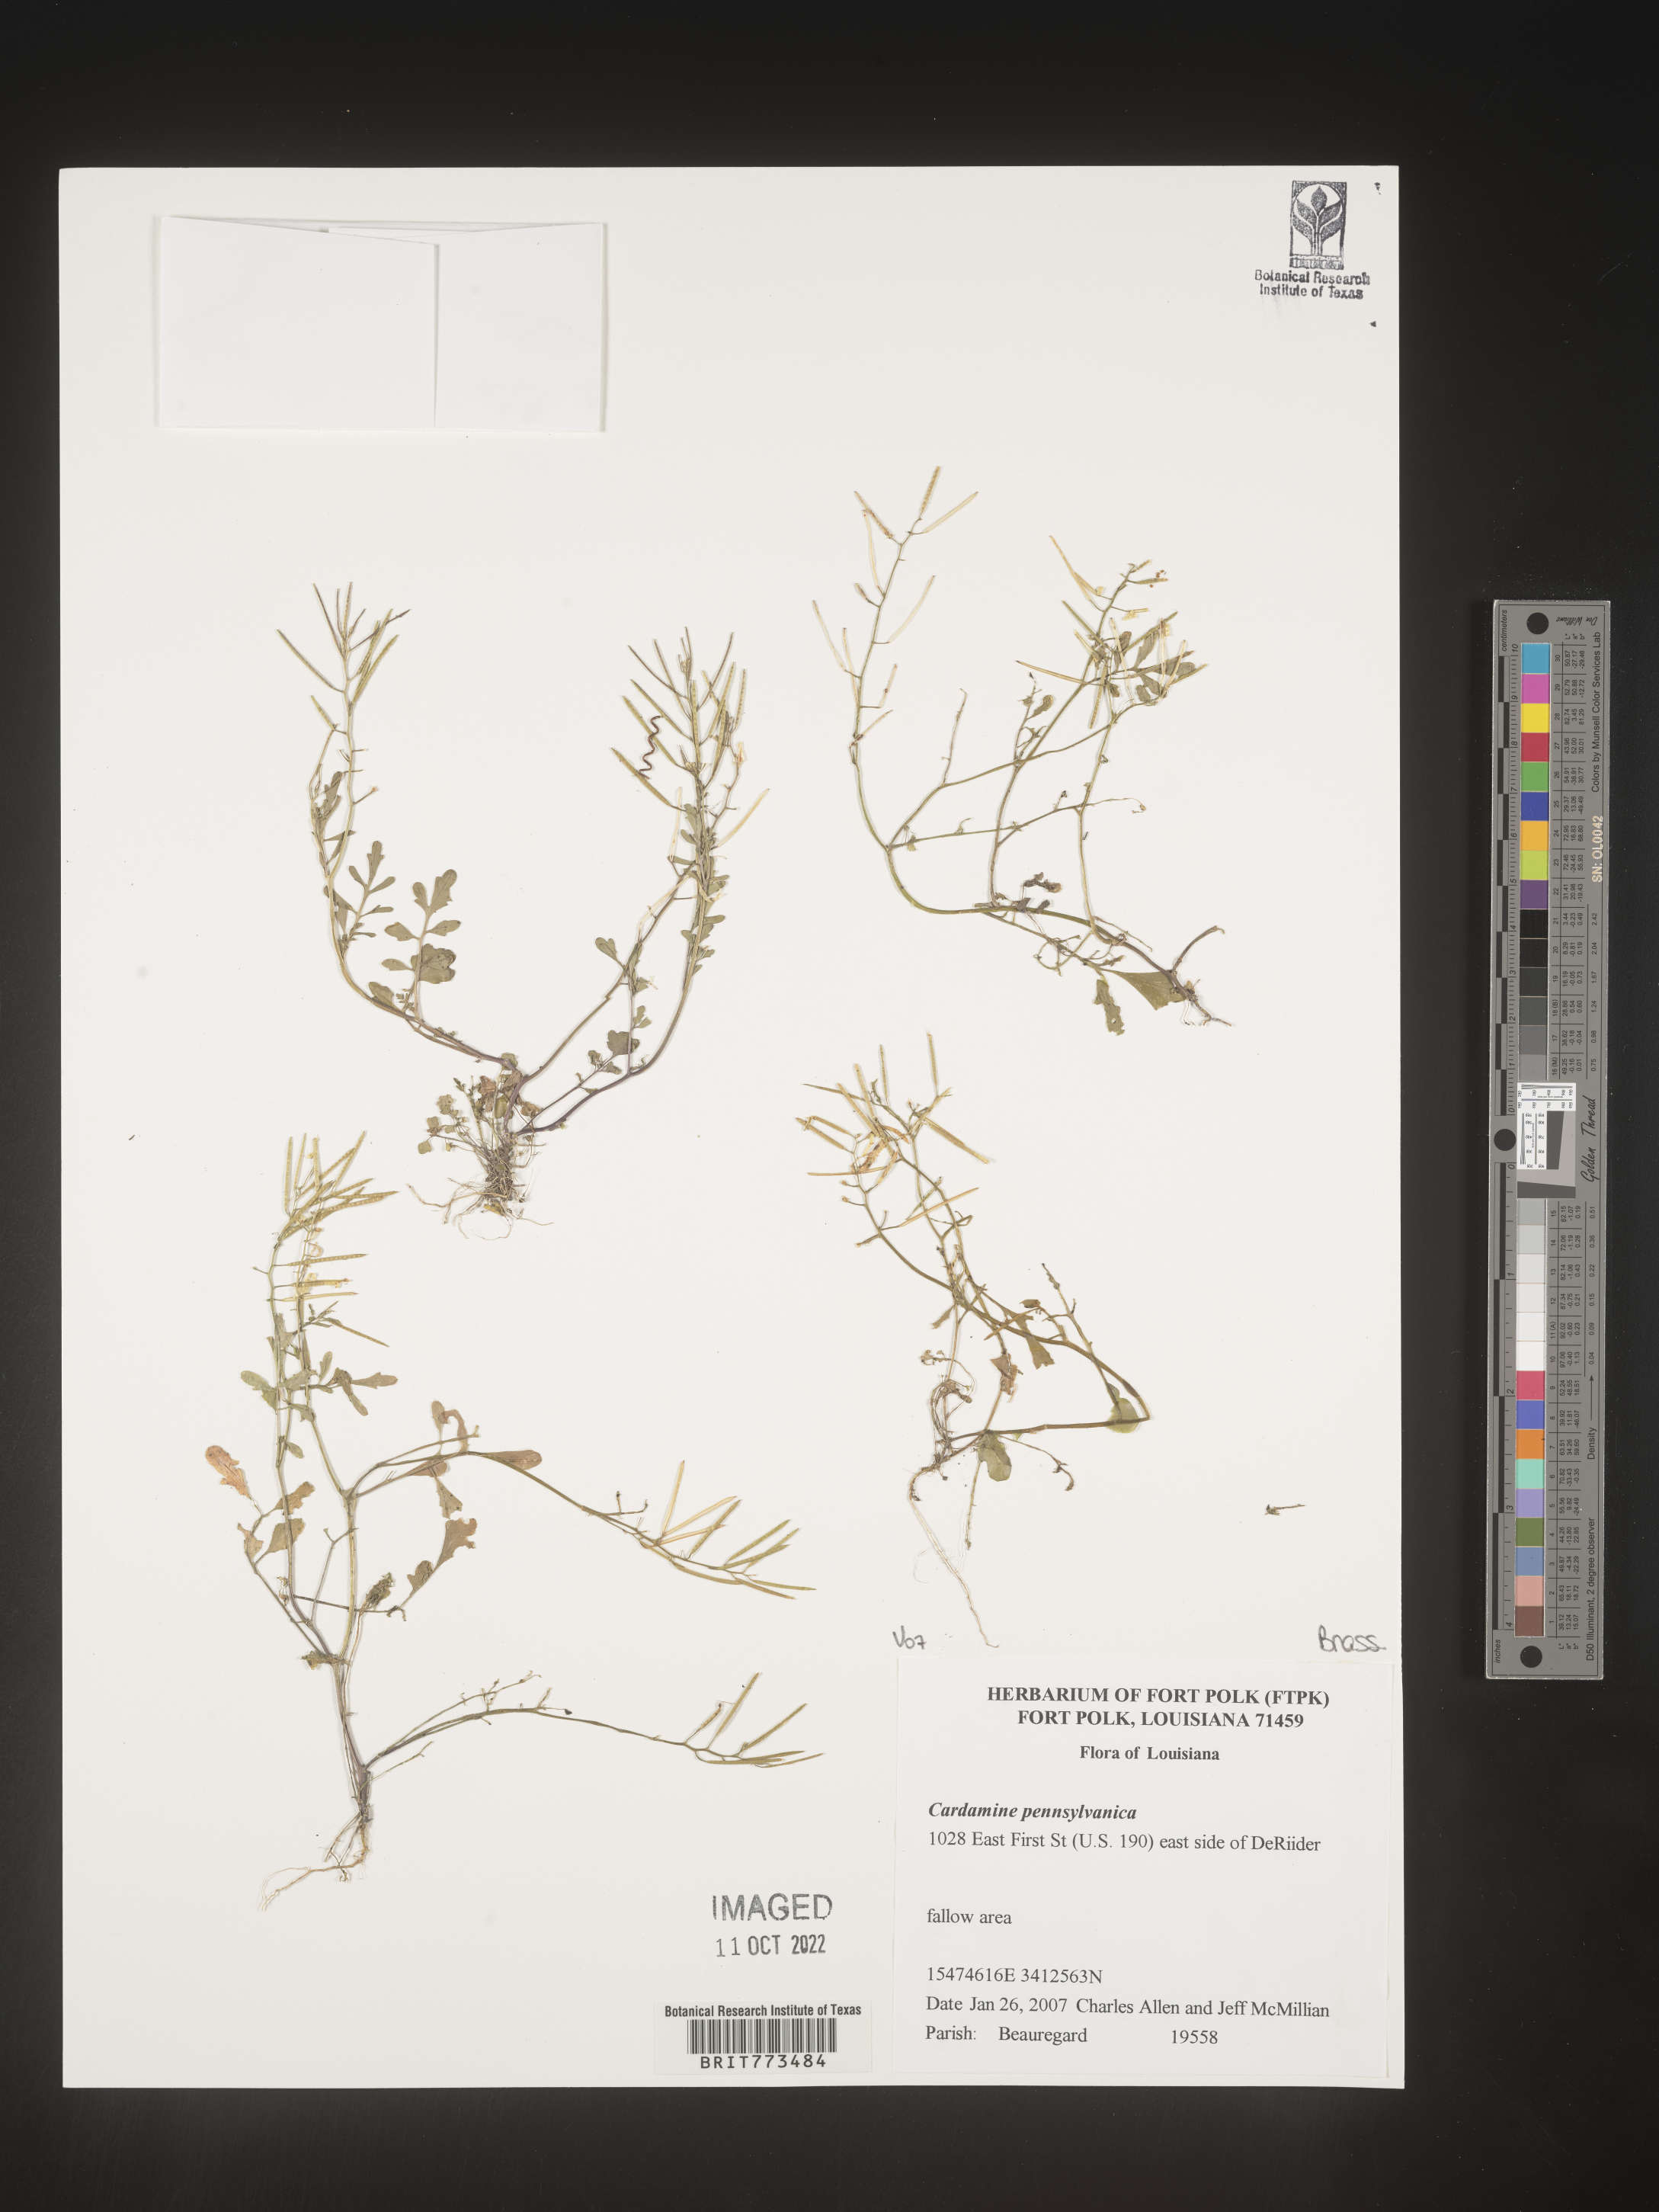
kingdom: Plantae
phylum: Tracheophyta
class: Magnoliopsida
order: Brassicales
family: Brassicaceae
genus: Cardamine
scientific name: Cardamine pensylvanica
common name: Pennsylvania bittercress
